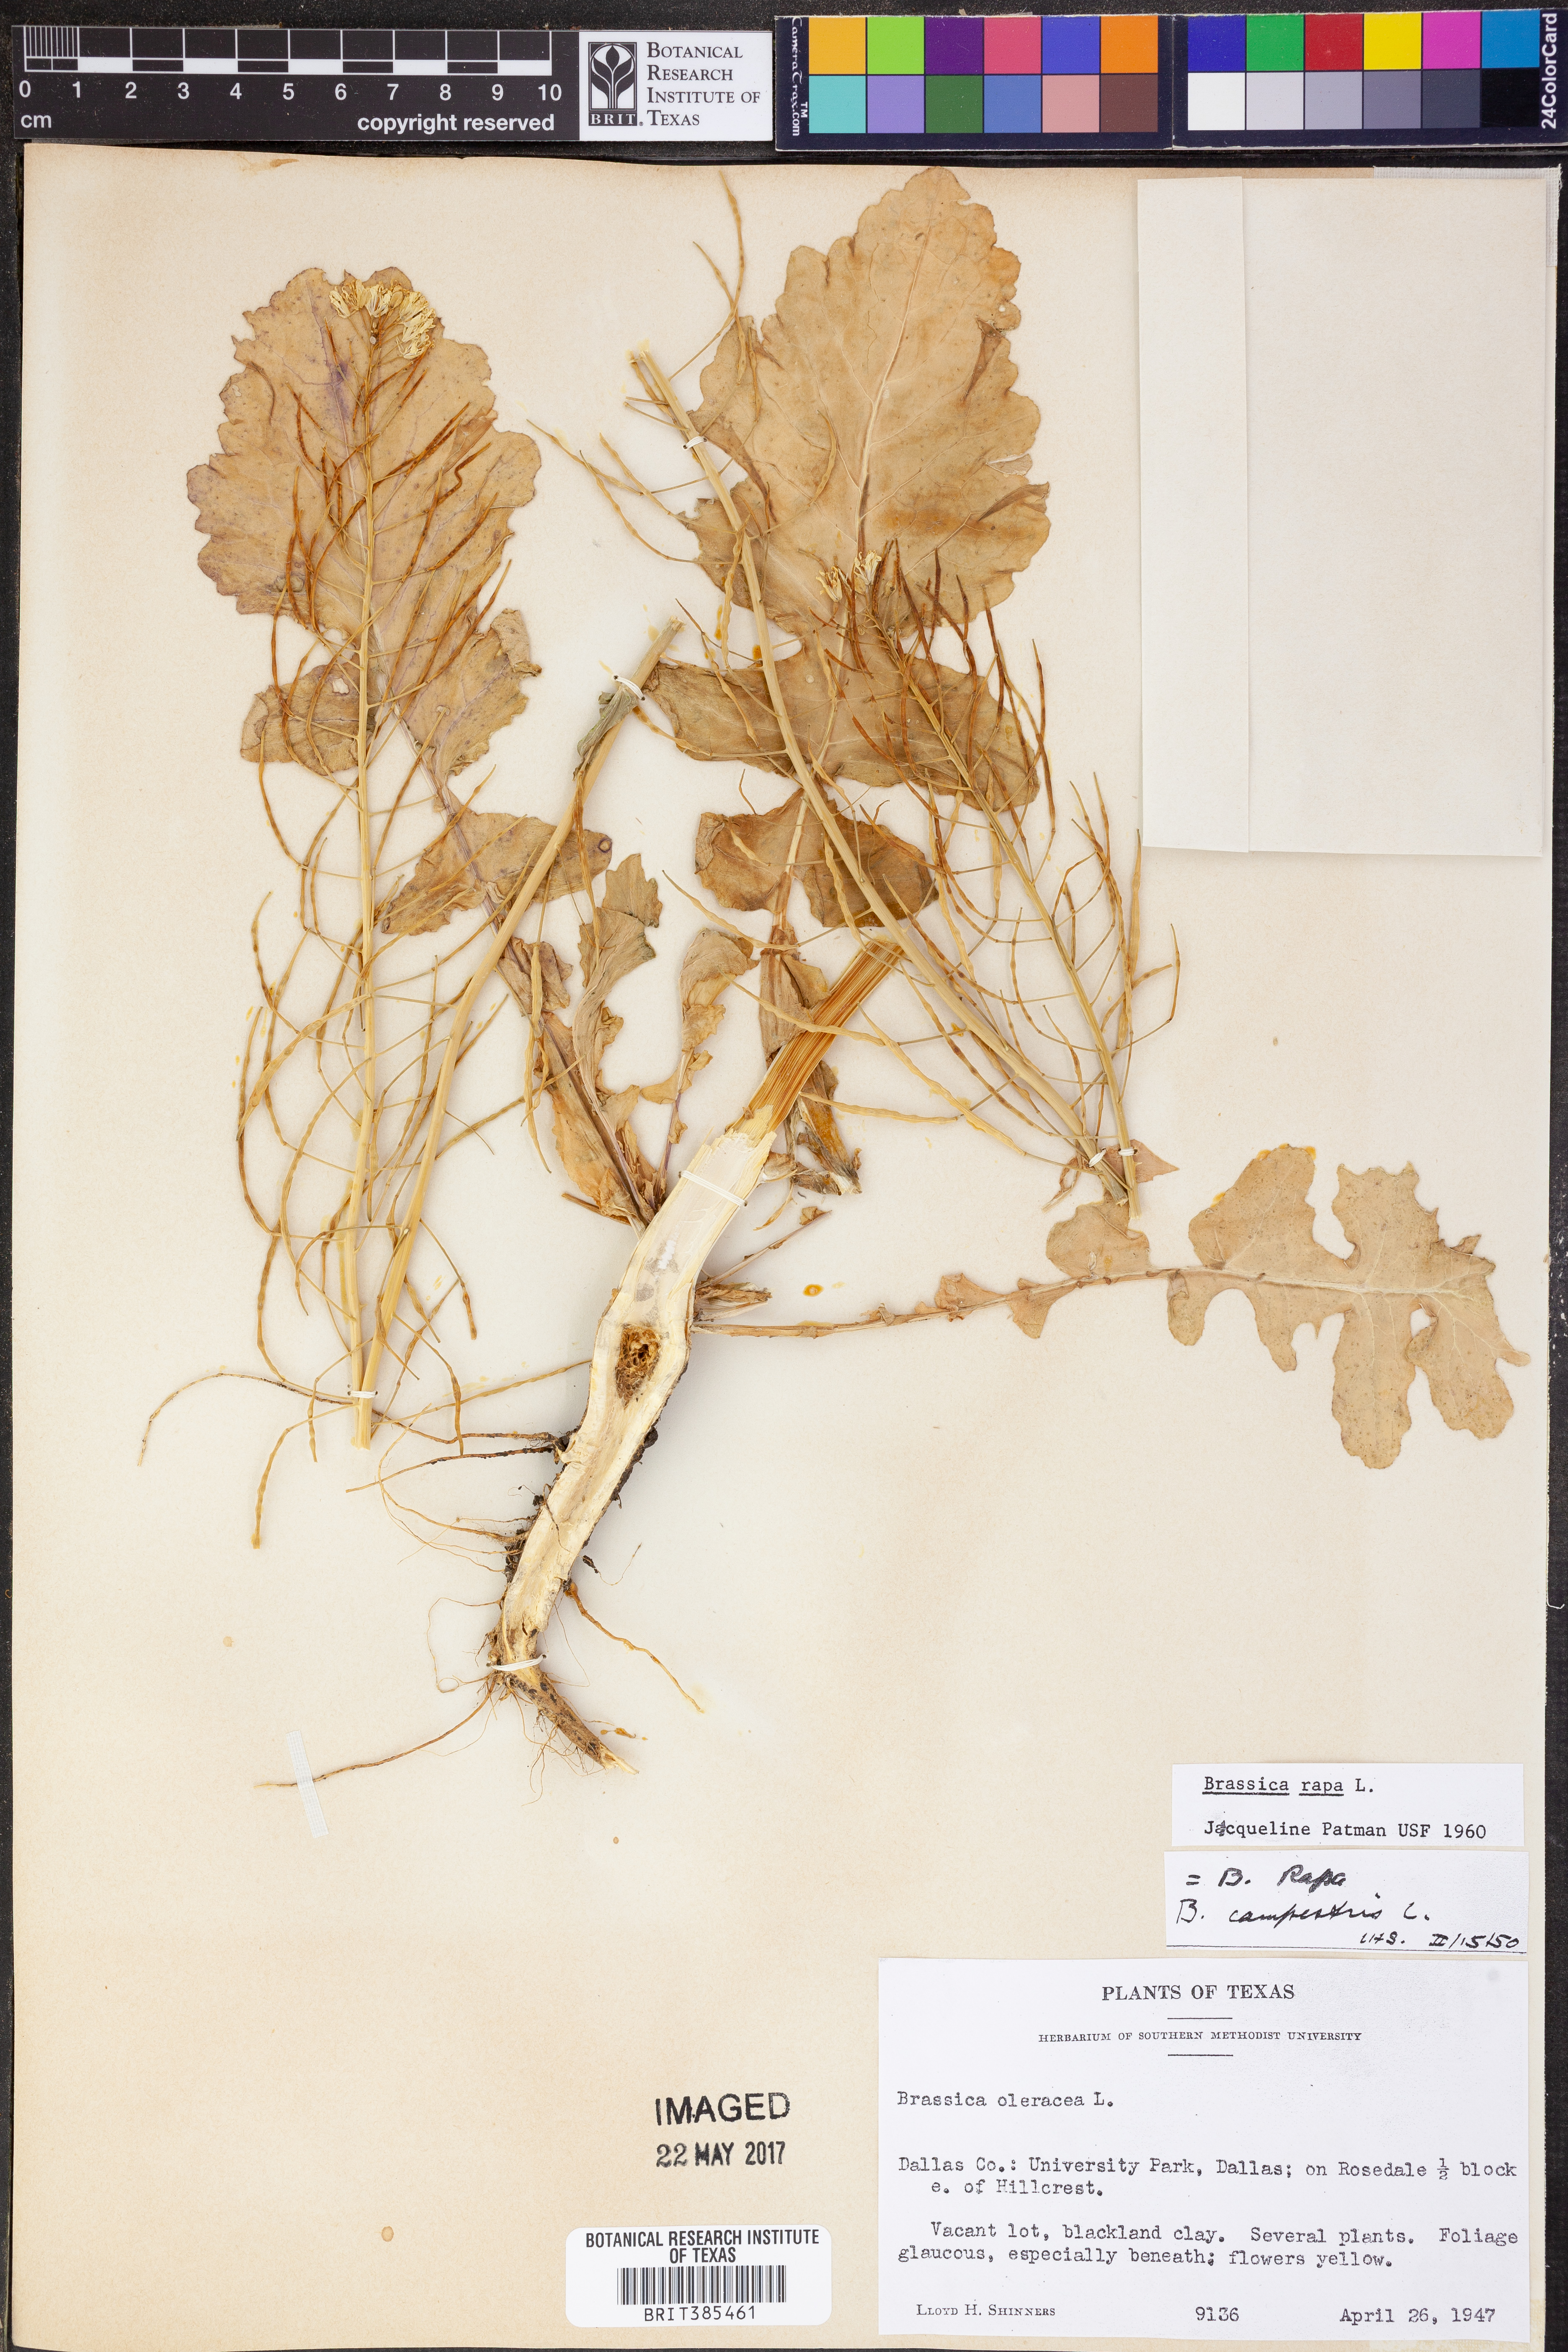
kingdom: Plantae
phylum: Tracheophyta
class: Magnoliopsida
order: Brassicales
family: Brassicaceae
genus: Brassica
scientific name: Brassica rapa
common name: Field mustard
